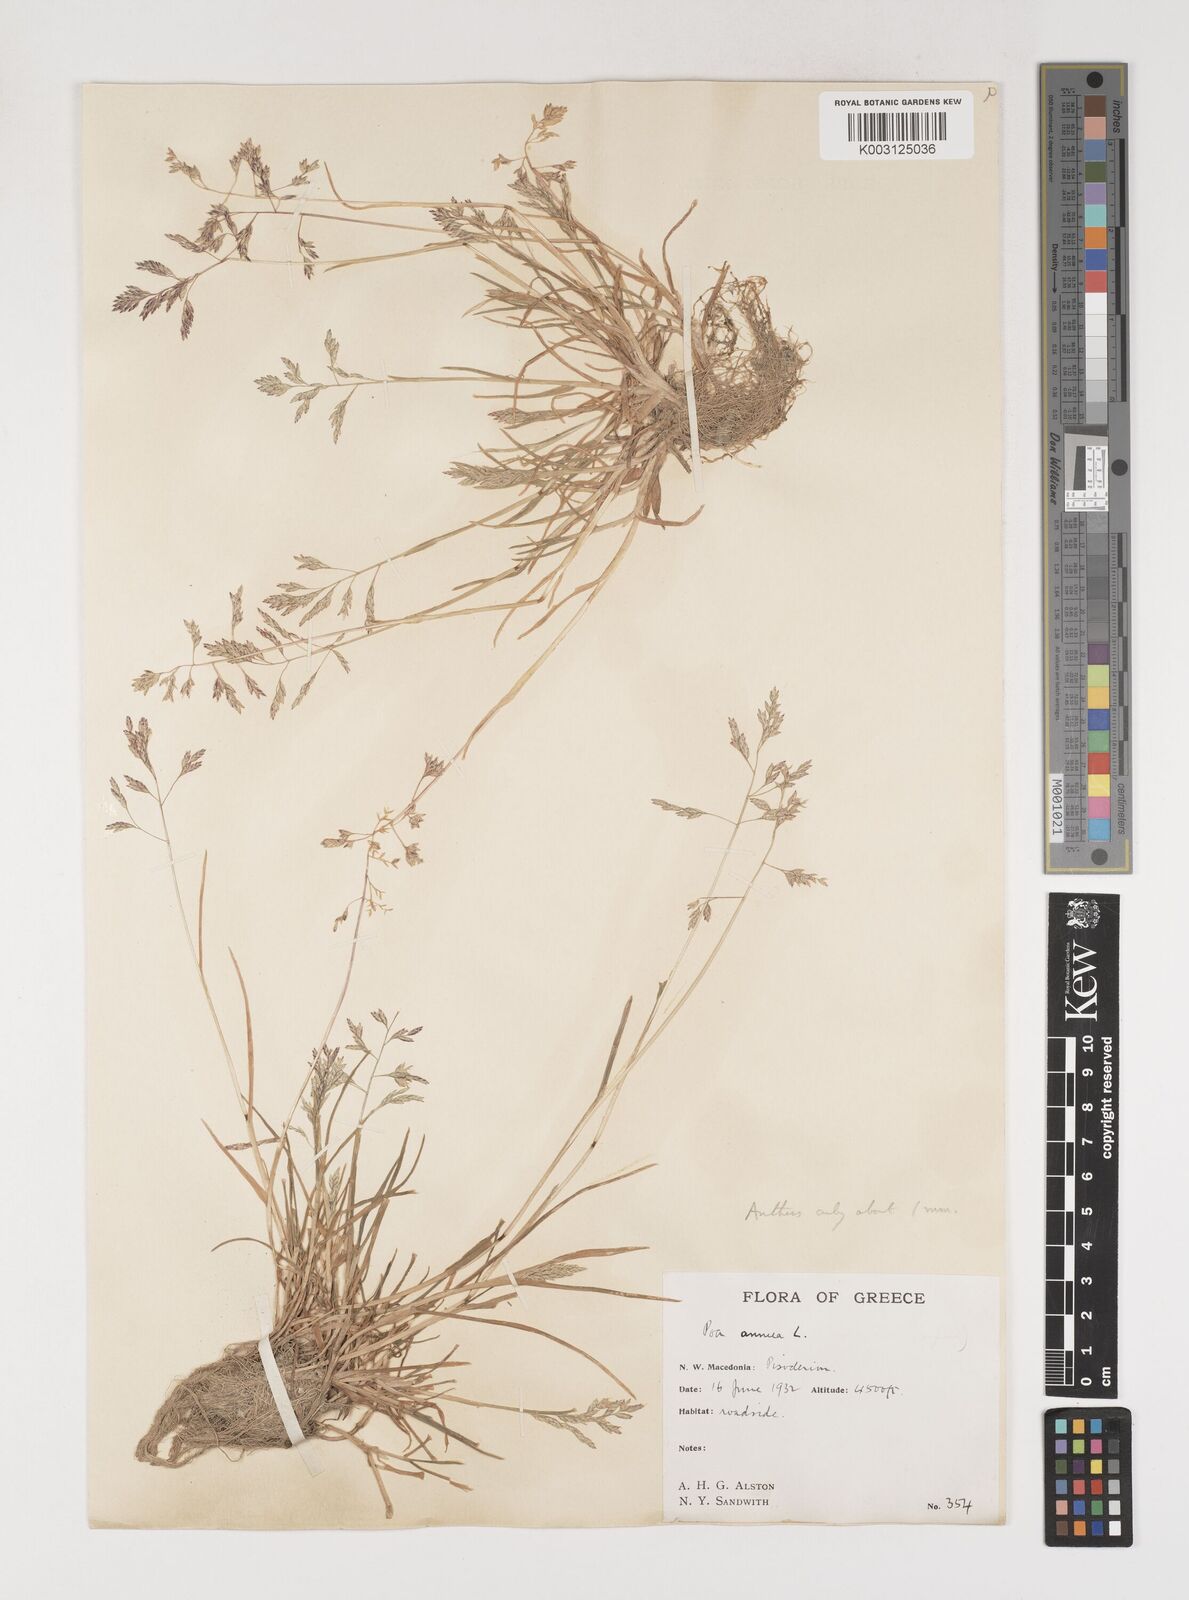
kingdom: Plantae
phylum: Tracheophyta
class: Liliopsida
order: Poales
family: Poaceae
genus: Poa
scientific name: Poa supina
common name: Supina bluegrass
